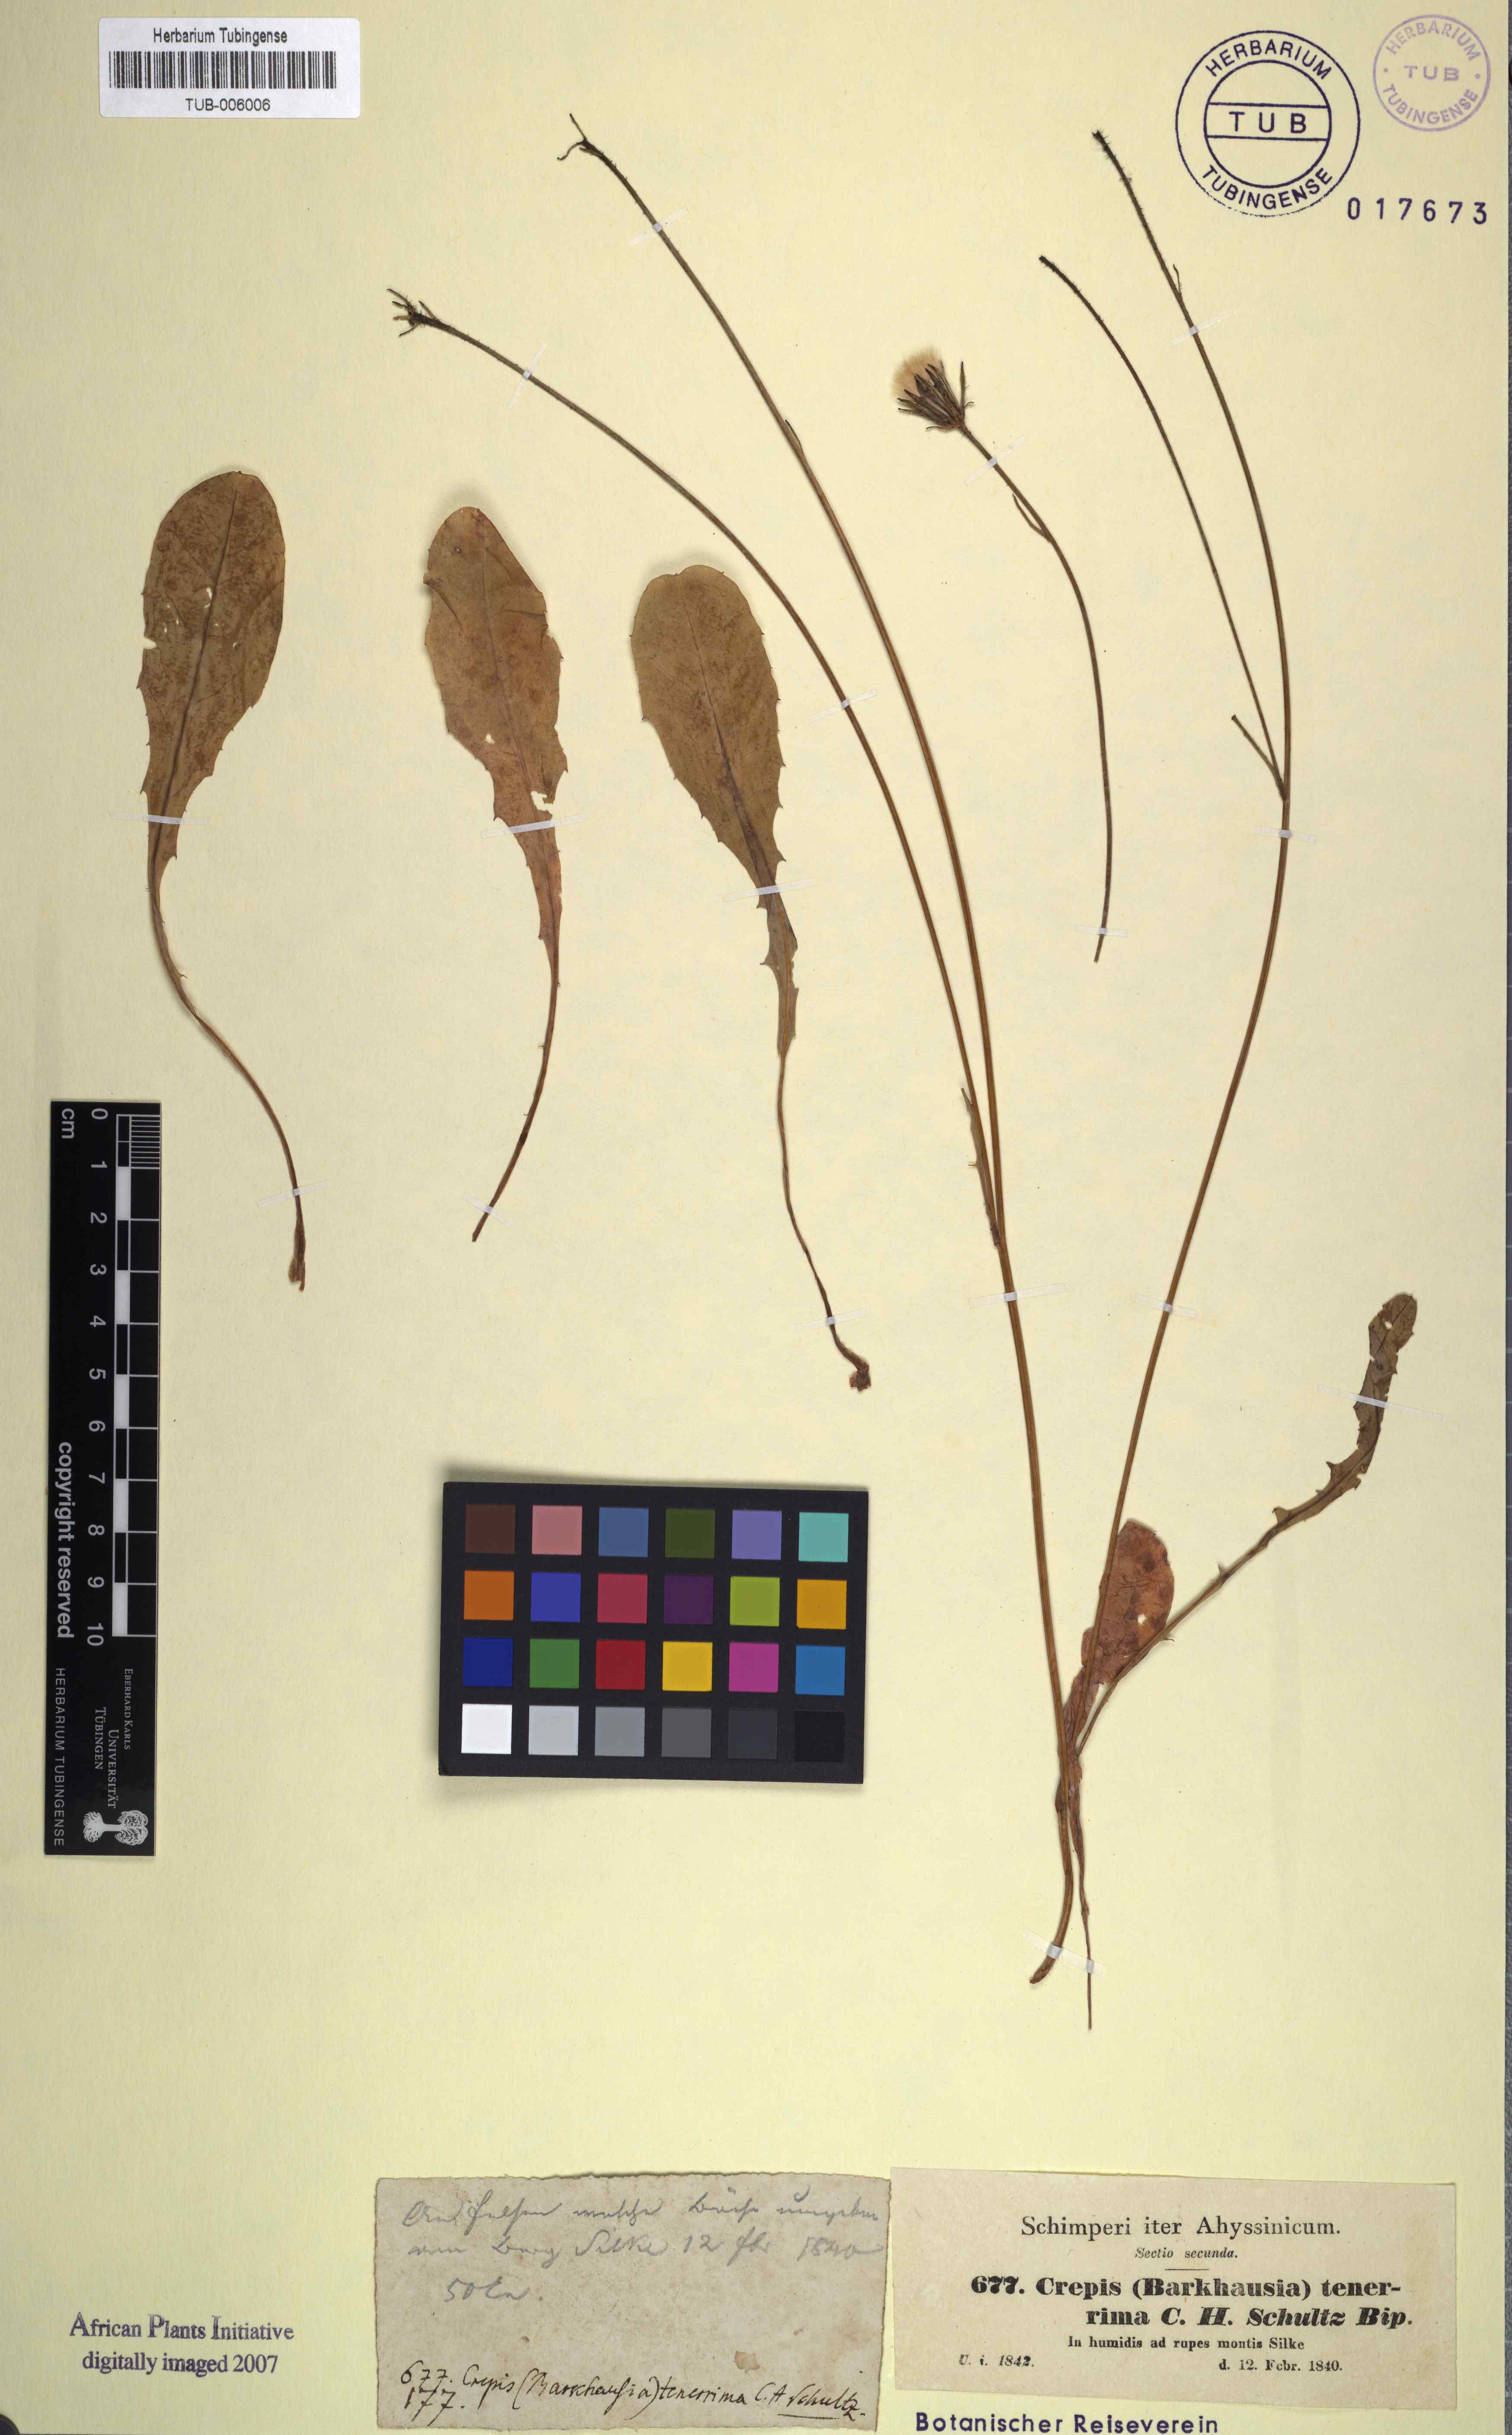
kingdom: Plantae
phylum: Tracheophyta
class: Magnoliopsida
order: Asterales
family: Asteraceae
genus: Crepis
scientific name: Crepis carbonaria
